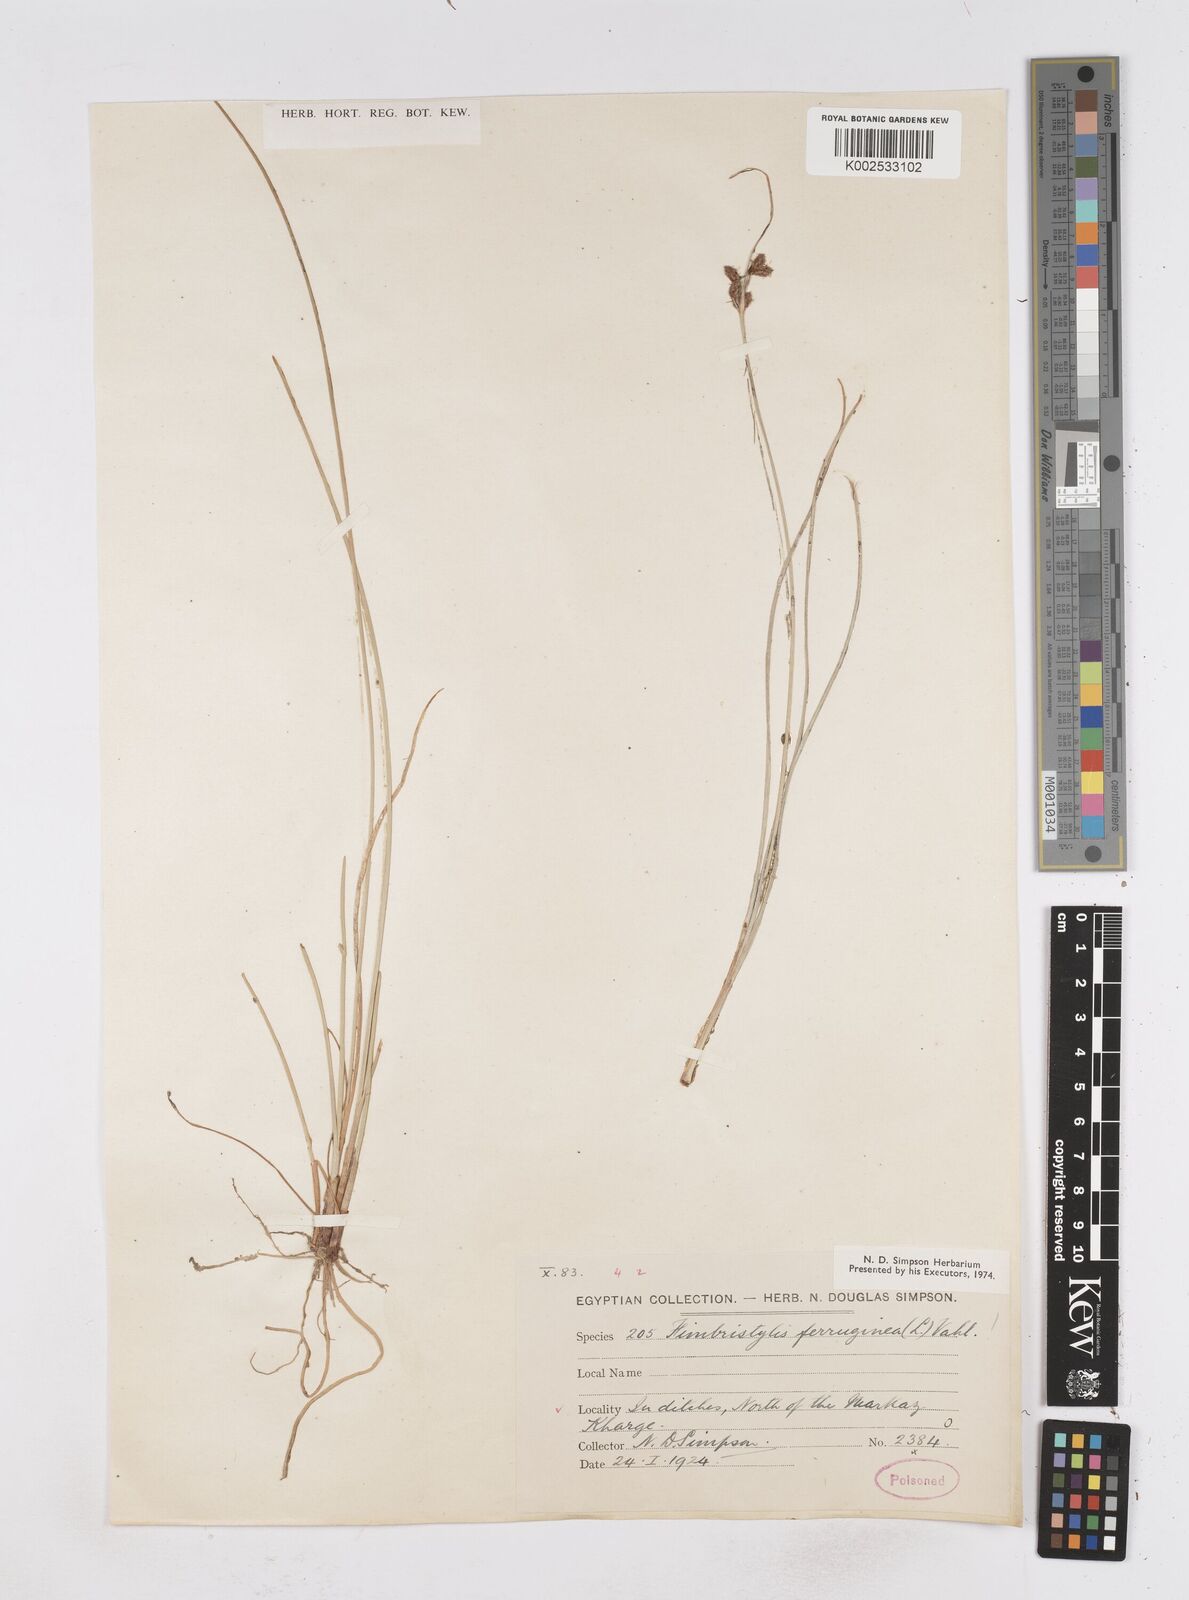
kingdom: Plantae
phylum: Tracheophyta
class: Liliopsida
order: Poales
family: Cyperaceae
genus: Fimbristylis
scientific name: Fimbristylis ferruginea
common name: West indian fimbry
